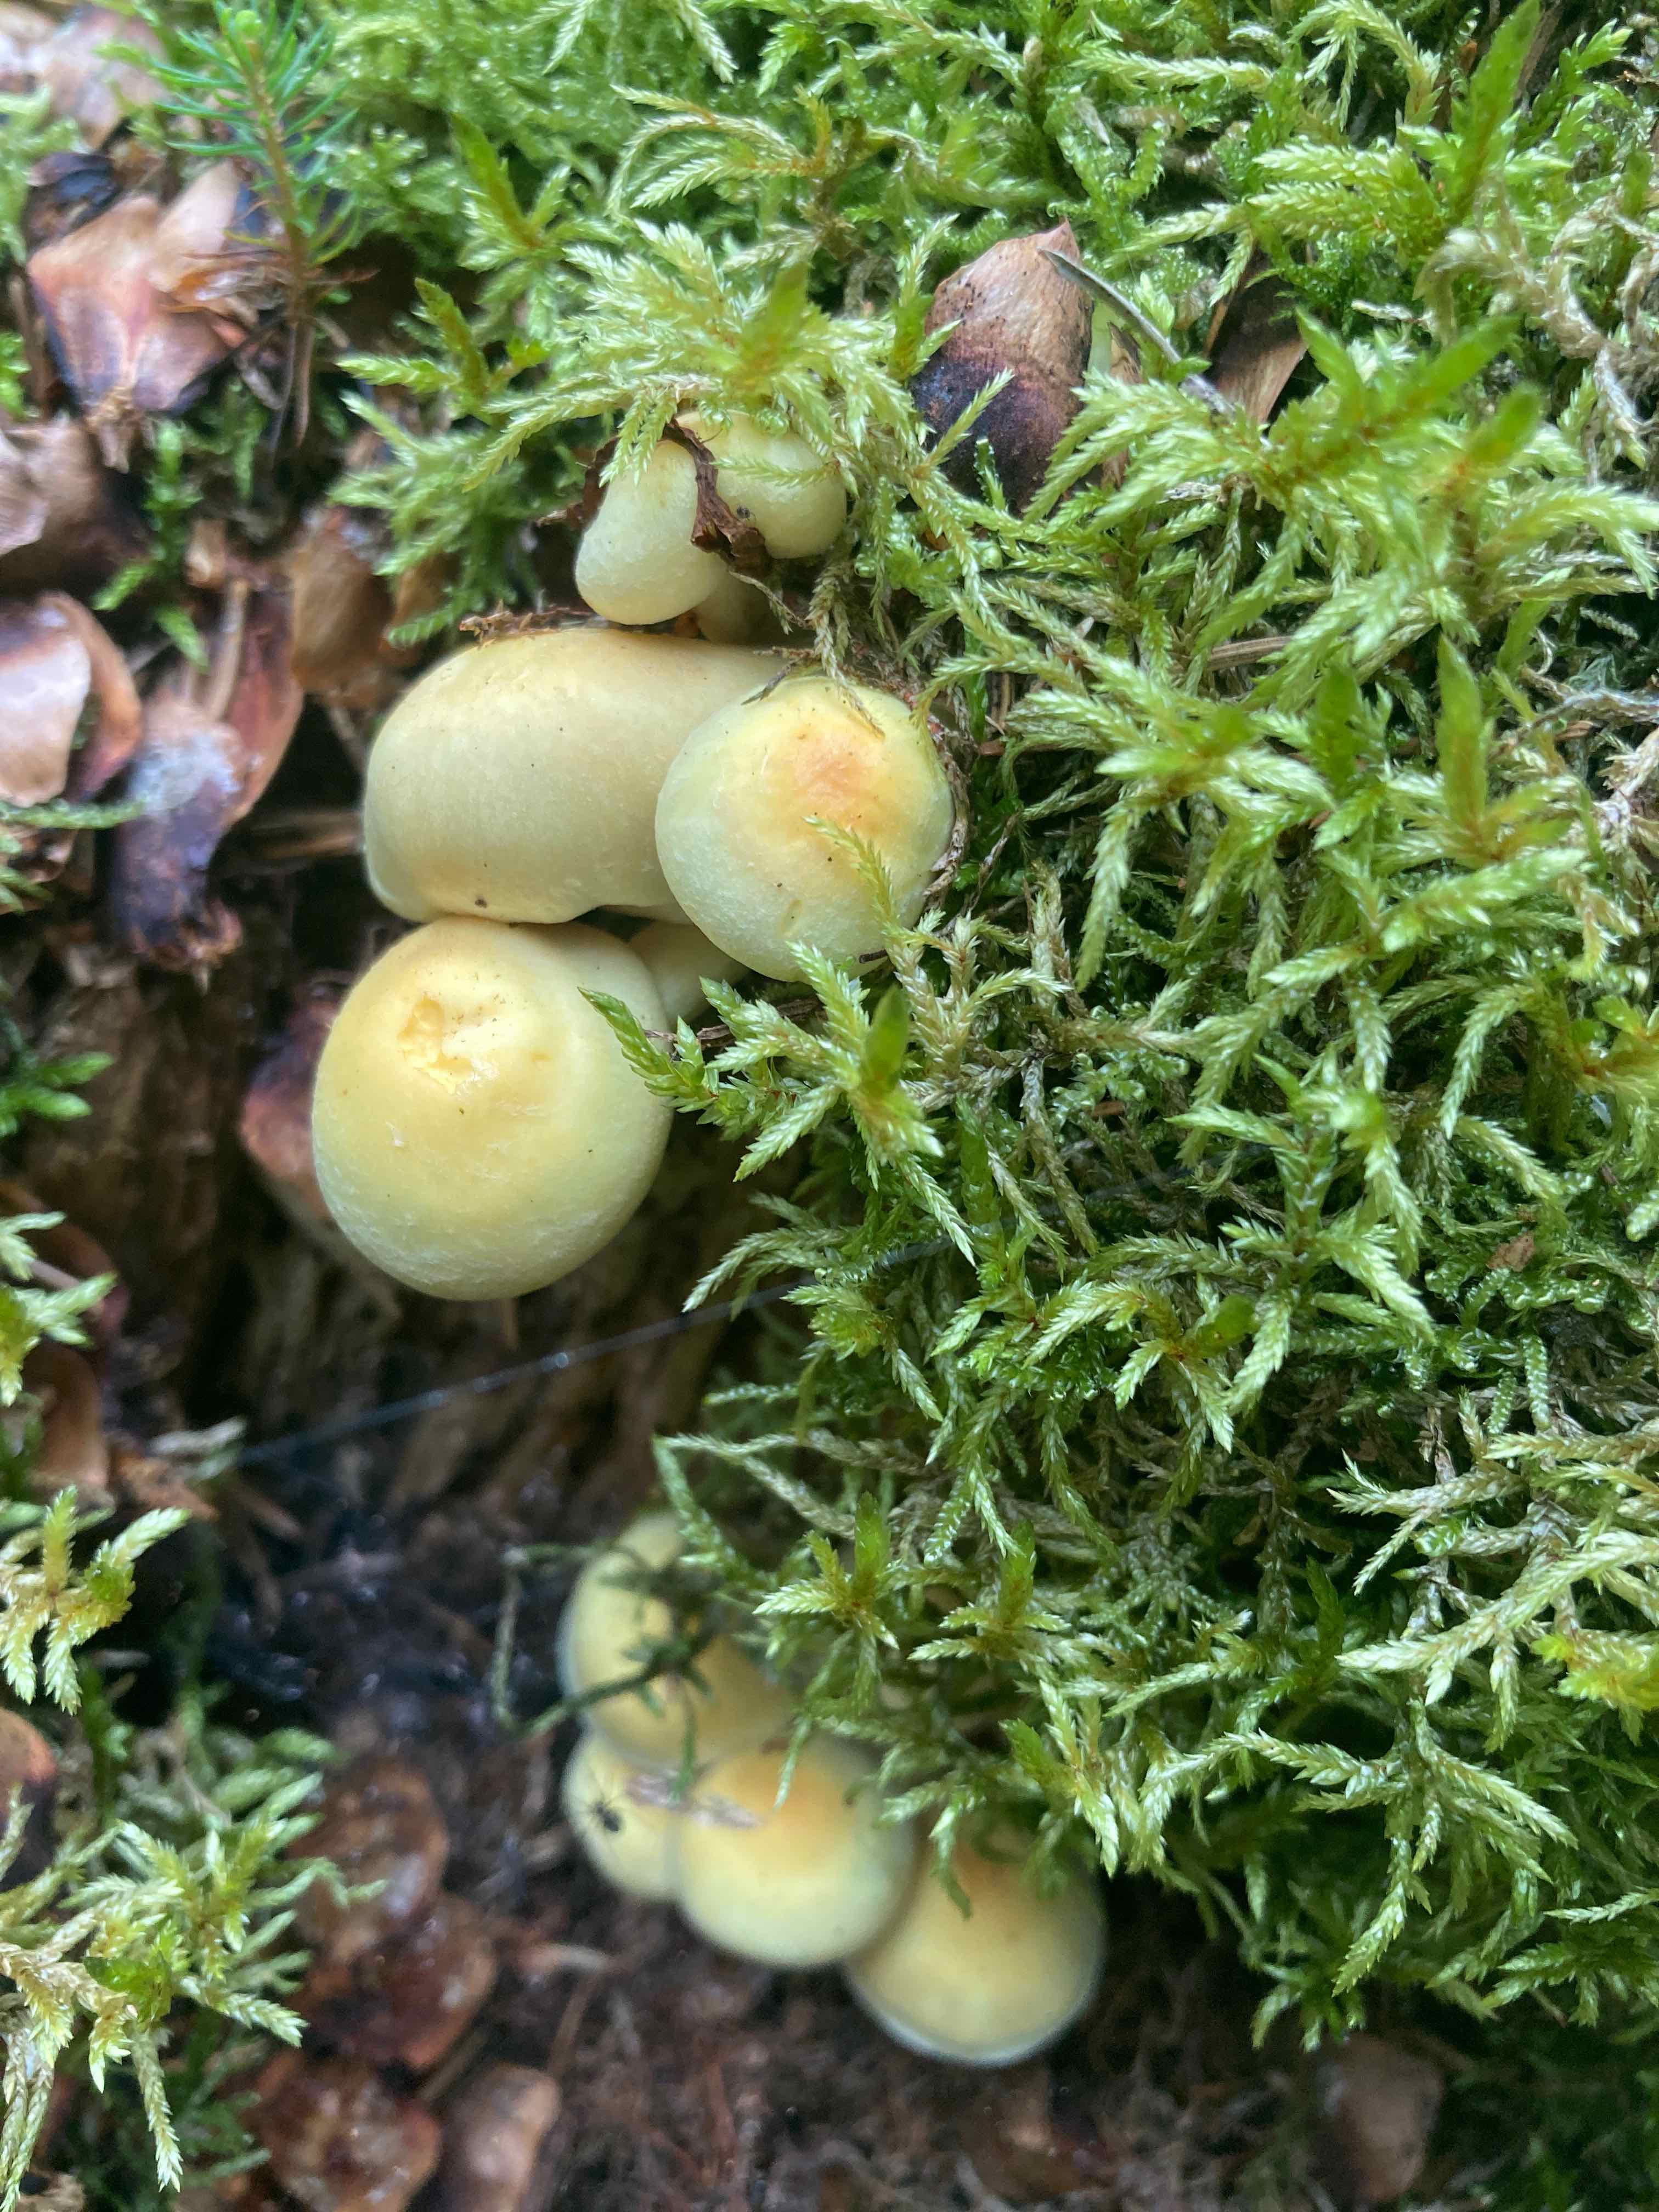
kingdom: Fungi
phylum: Basidiomycota
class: Agaricomycetes
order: Agaricales
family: Strophariaceae
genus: Hypholoma
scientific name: Hypholoma fasciculare
